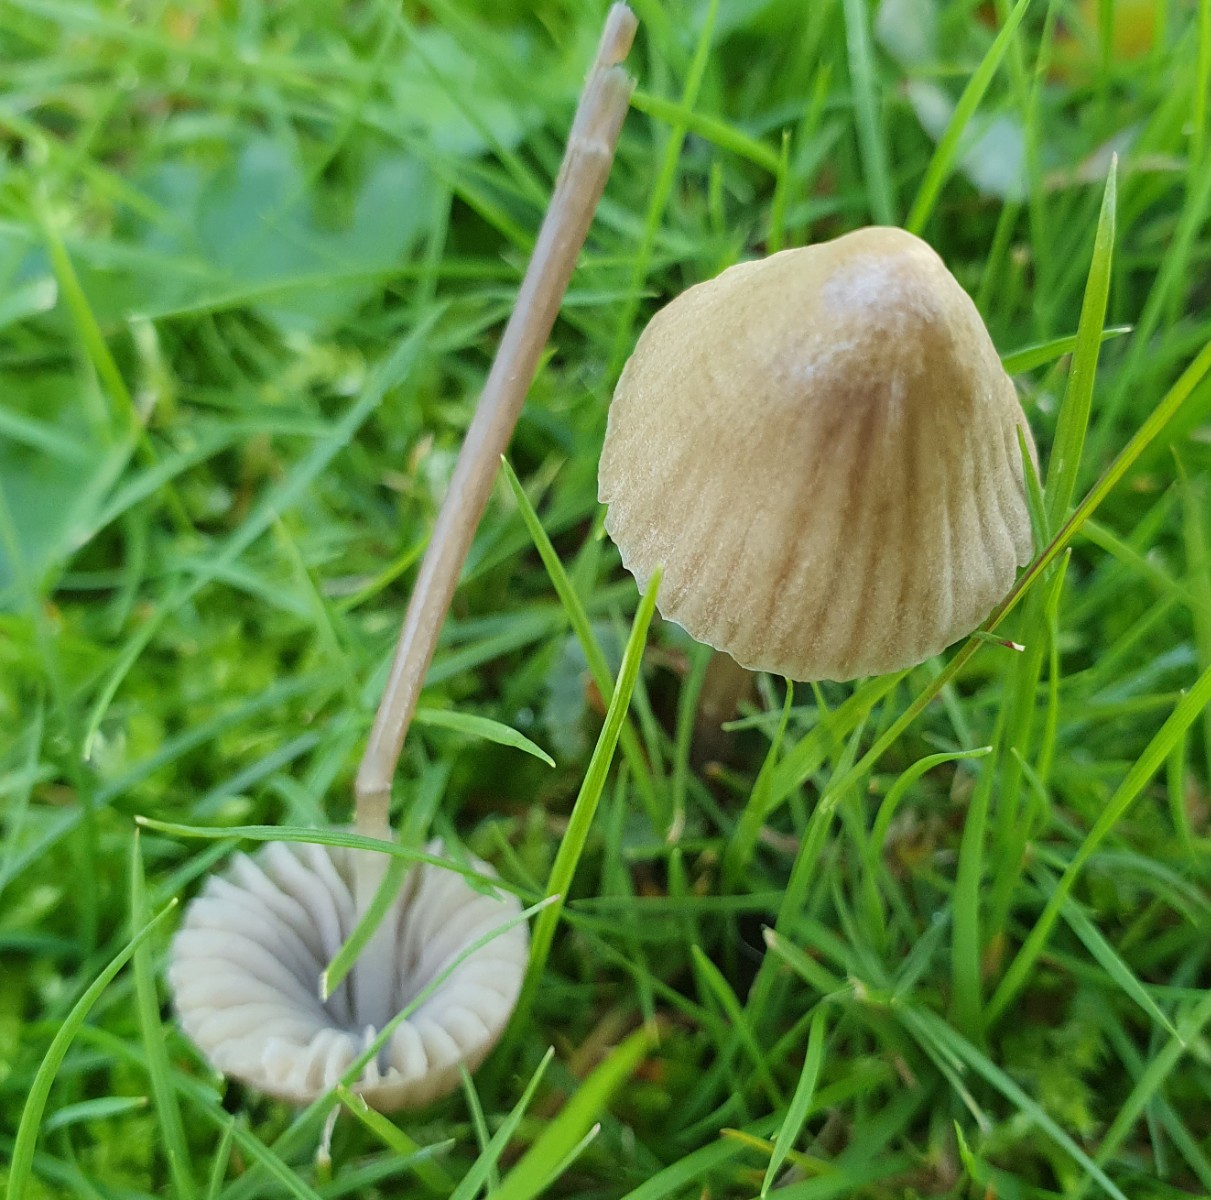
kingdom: Fungi
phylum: Basidiomycota
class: Agaricomycetes
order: Agaricales
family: Mycenaceae
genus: Mycena
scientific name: Mycena leptocephala
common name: klor-huesvamp
